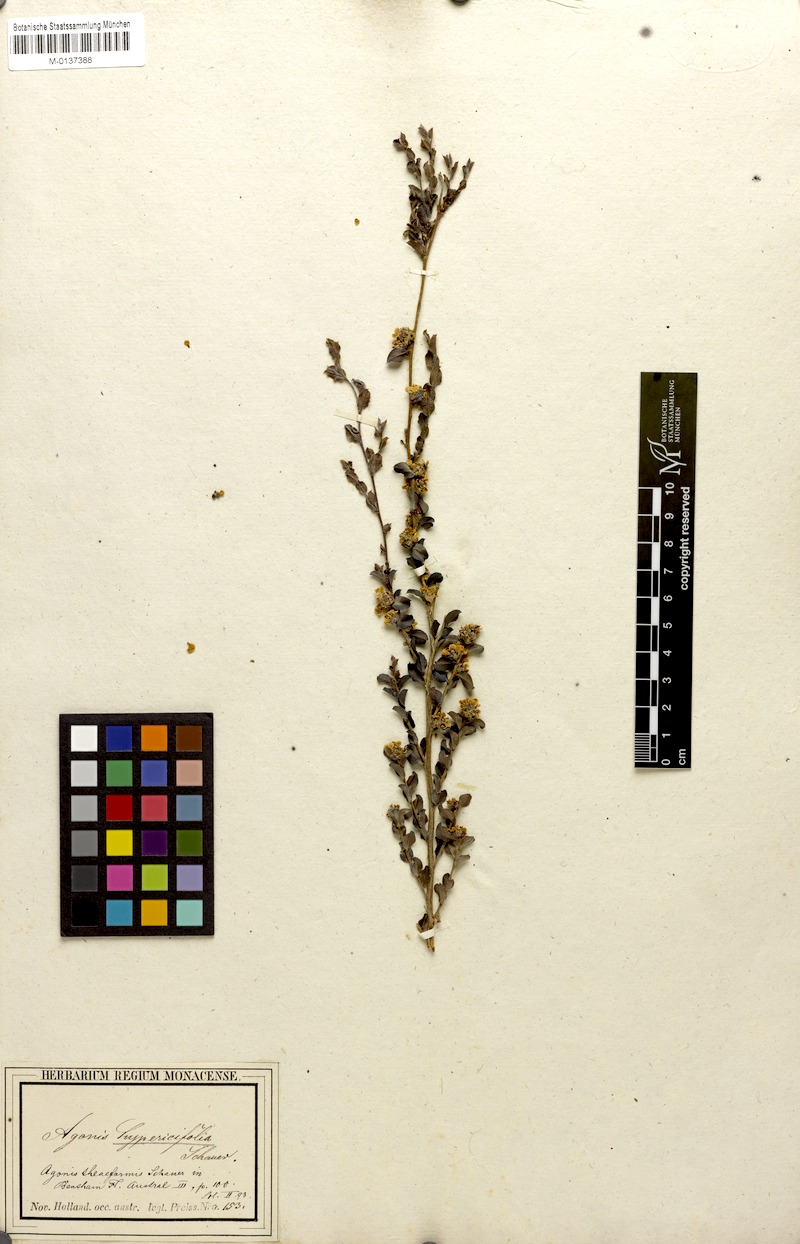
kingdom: Plantae
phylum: Tracheophyta
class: Magnoliopsida
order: Myrtales
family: Myrtaceae
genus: Agonis
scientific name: Agonis theiformis
